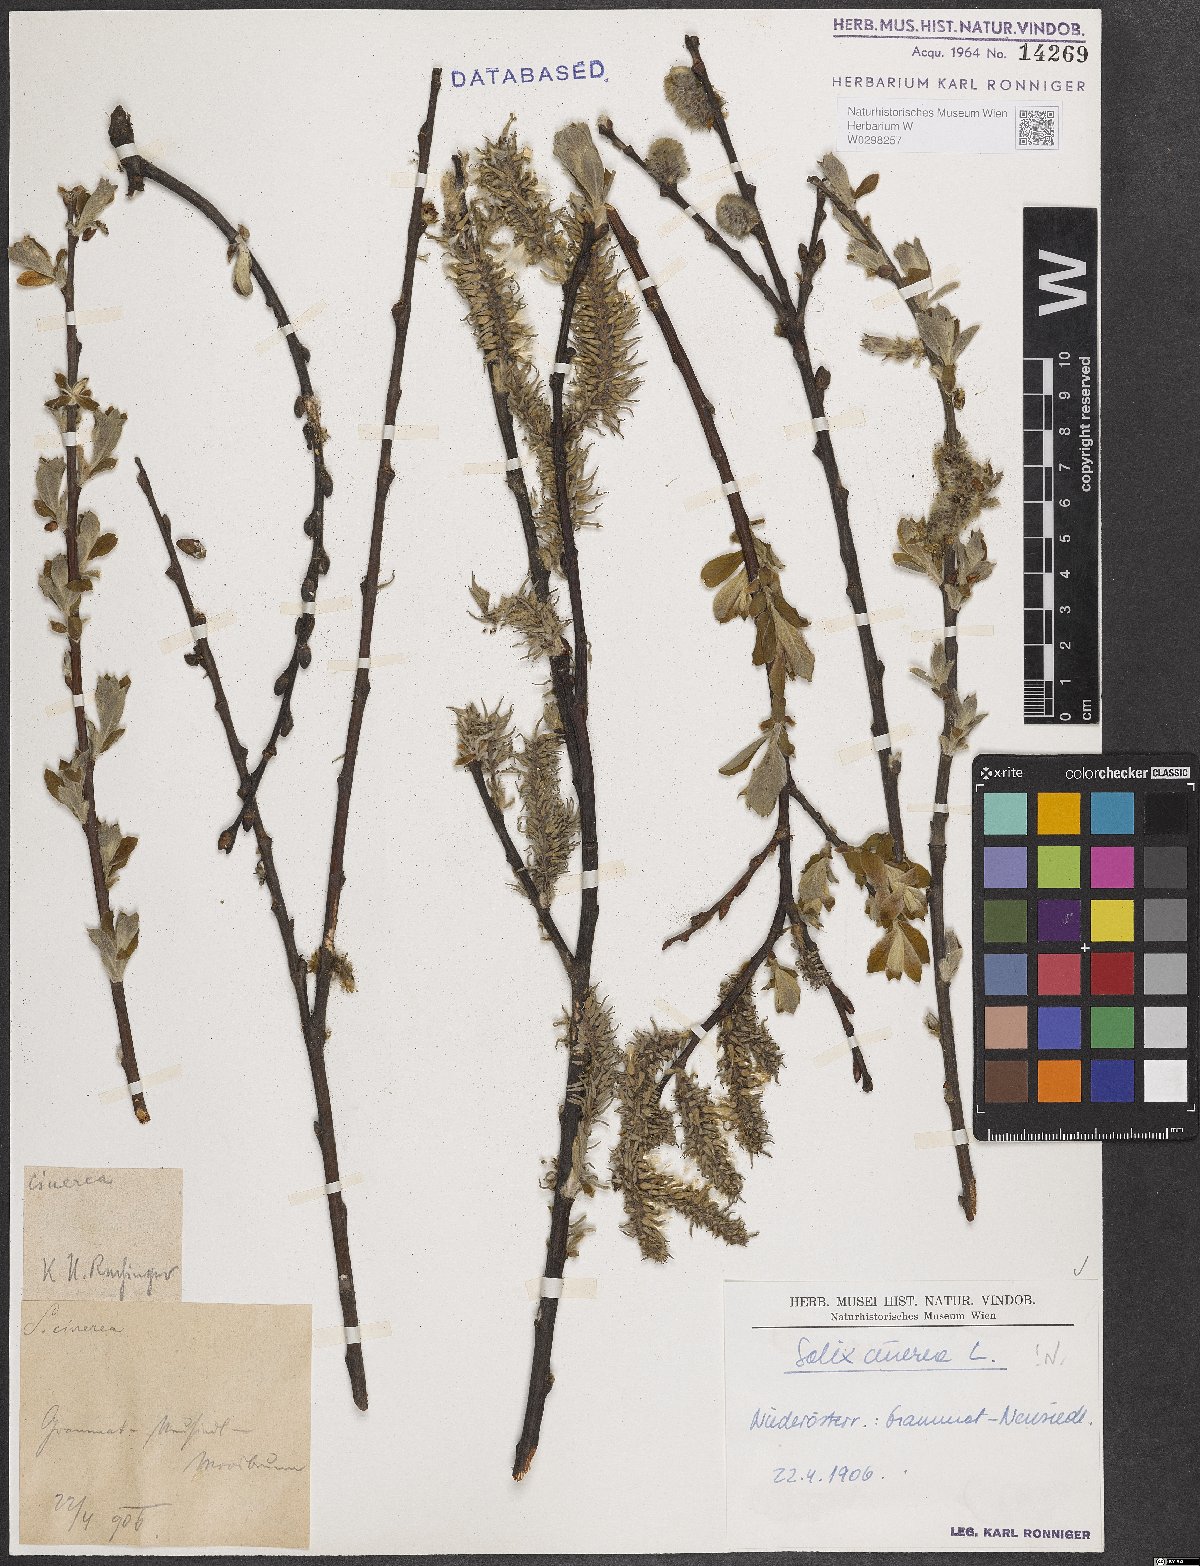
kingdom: Plantae
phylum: Tracheophyta
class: Magnoliopsida
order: Malpighiales
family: Salicaceae
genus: Salix
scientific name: Salix cinerea
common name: Common sallow
